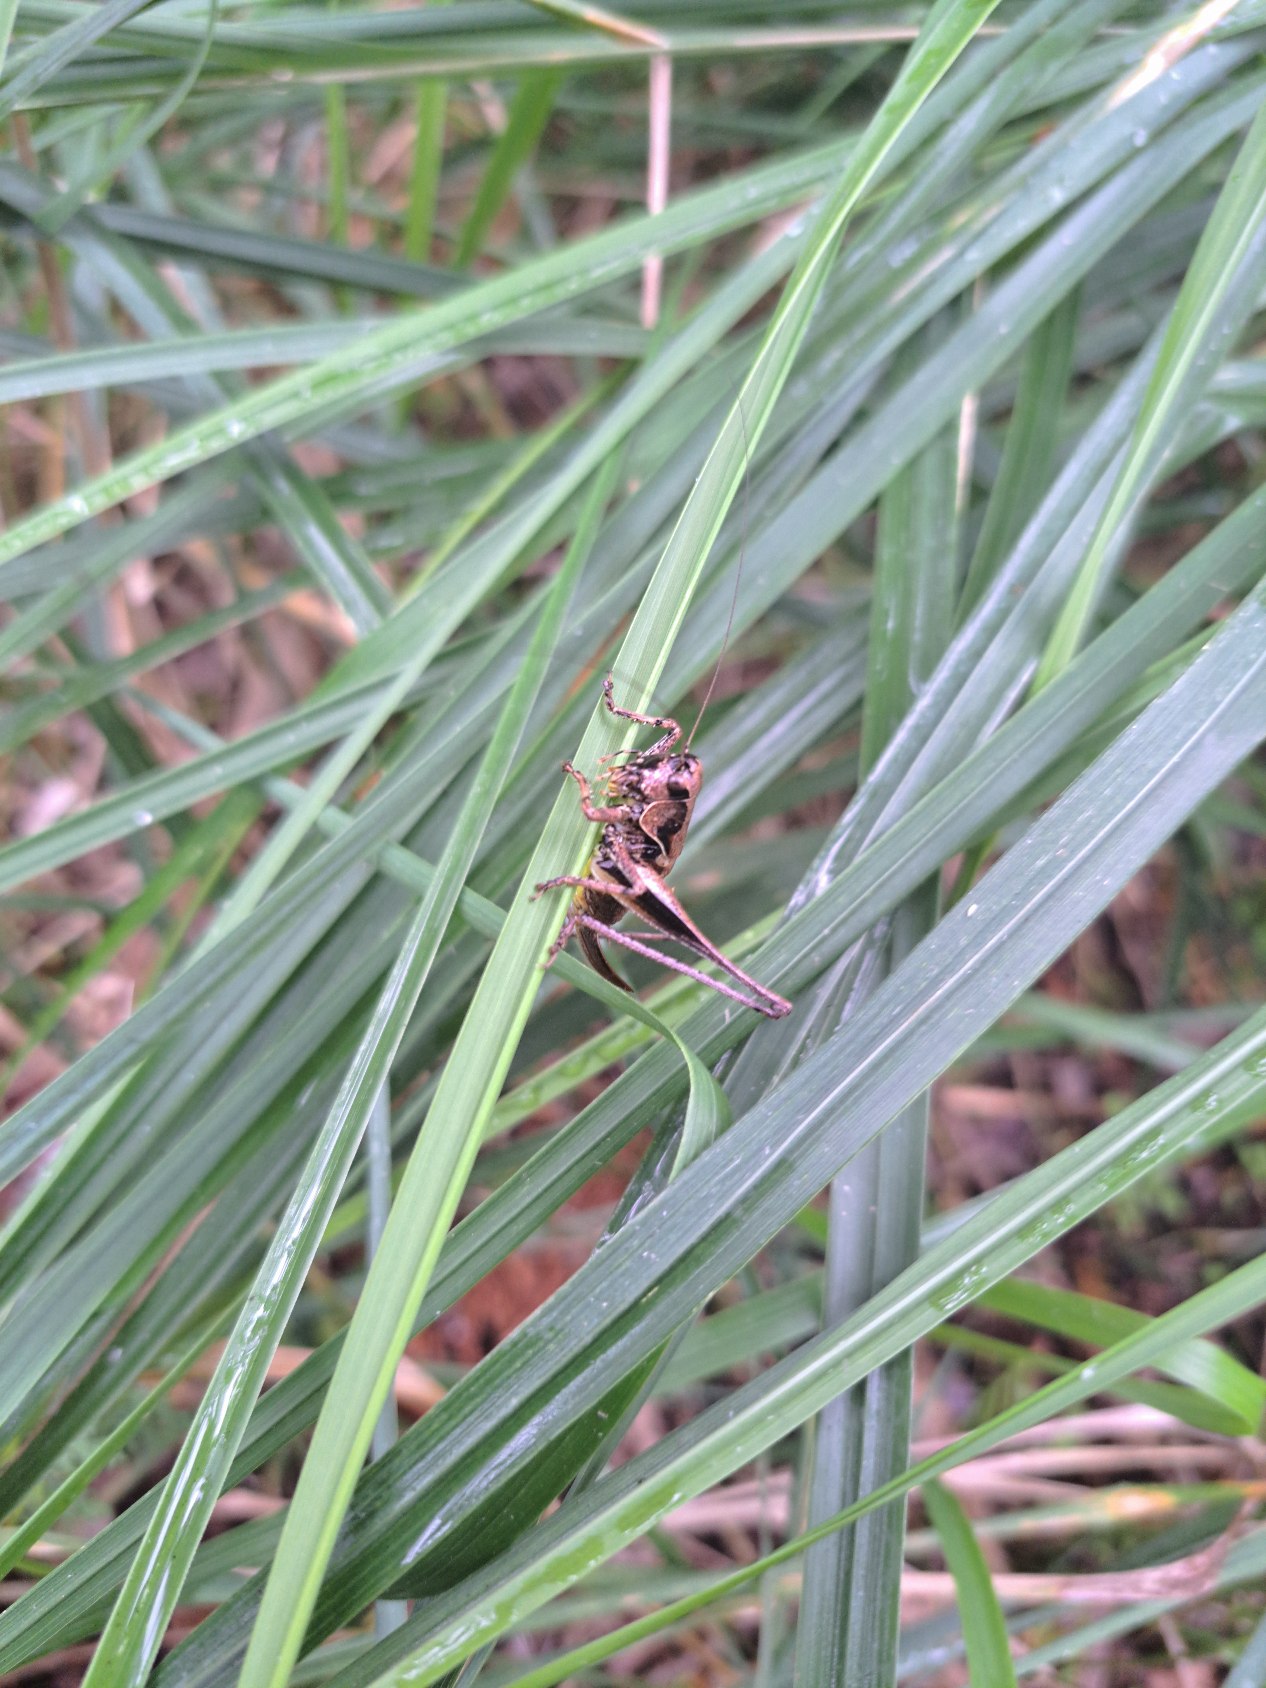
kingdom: Animalia
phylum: Arthropoda
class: Insecta
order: Orthoptera
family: Tettigoniidae
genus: Pholidoptera
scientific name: Pholidoptera griseoaptera
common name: Buskgræshoppe
